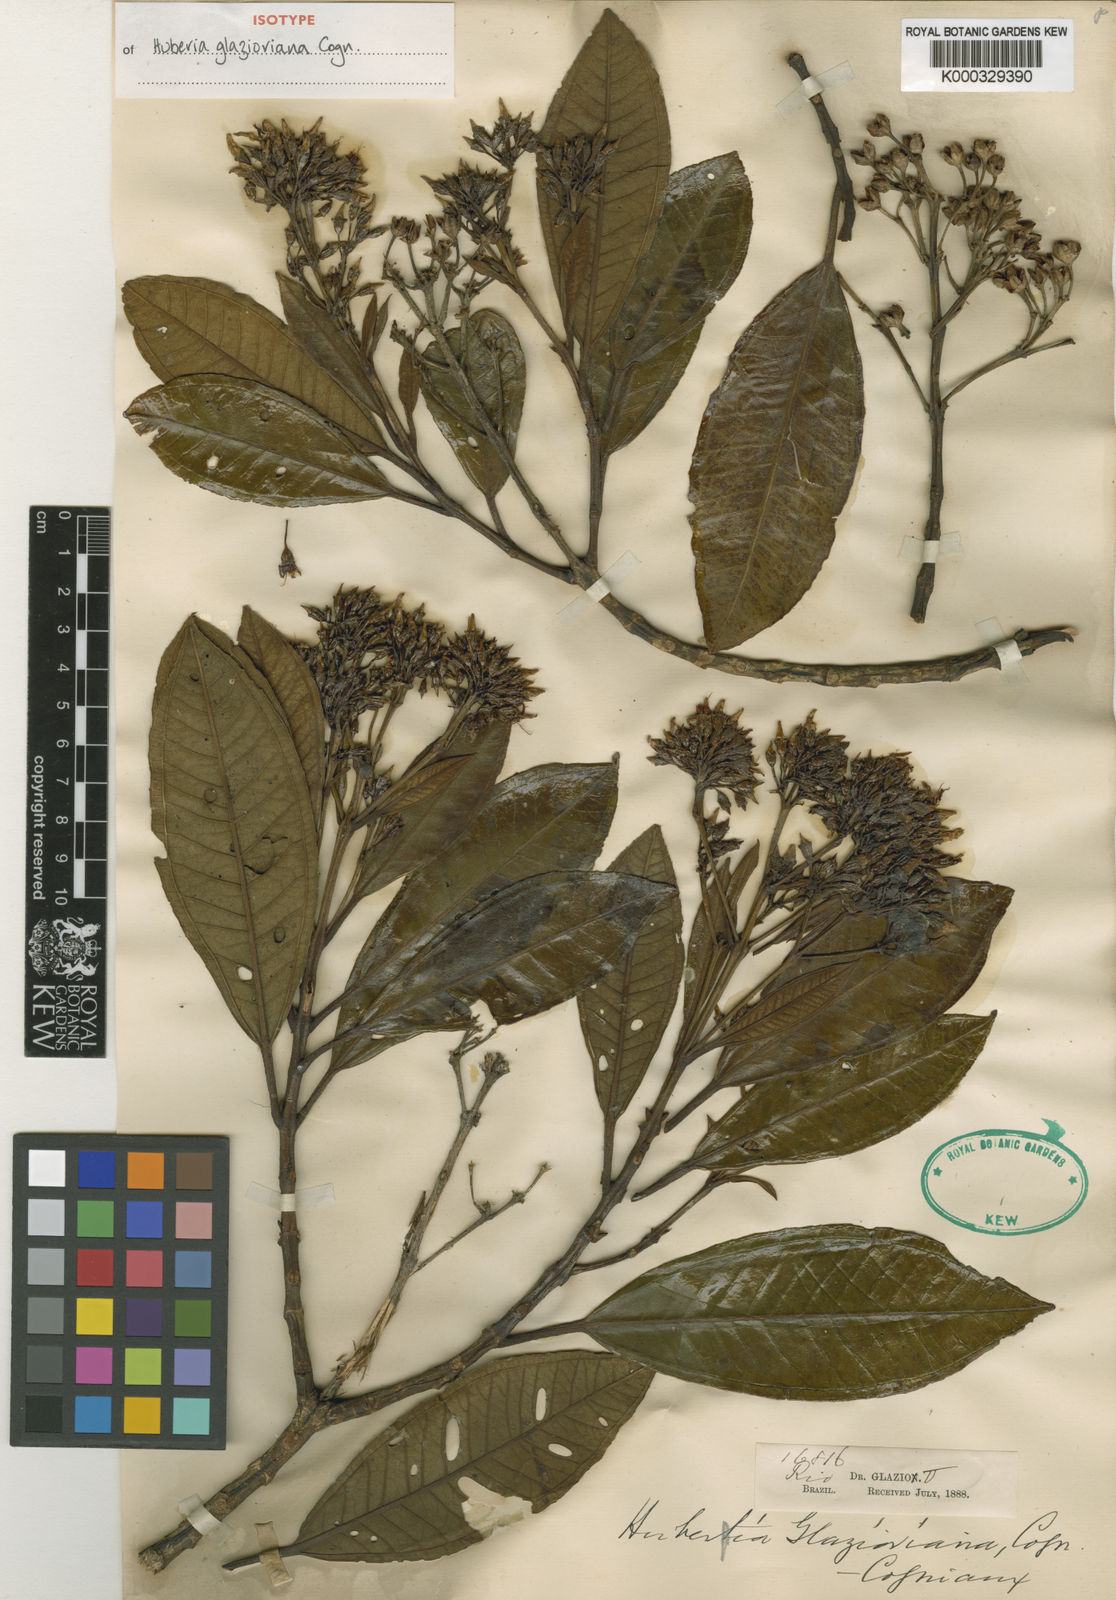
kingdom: Plantae
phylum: Tracheophyta
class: Magnoliopsida
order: Myrtales
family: Melastomataceae
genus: Huberia
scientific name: Huberia glazioviana
